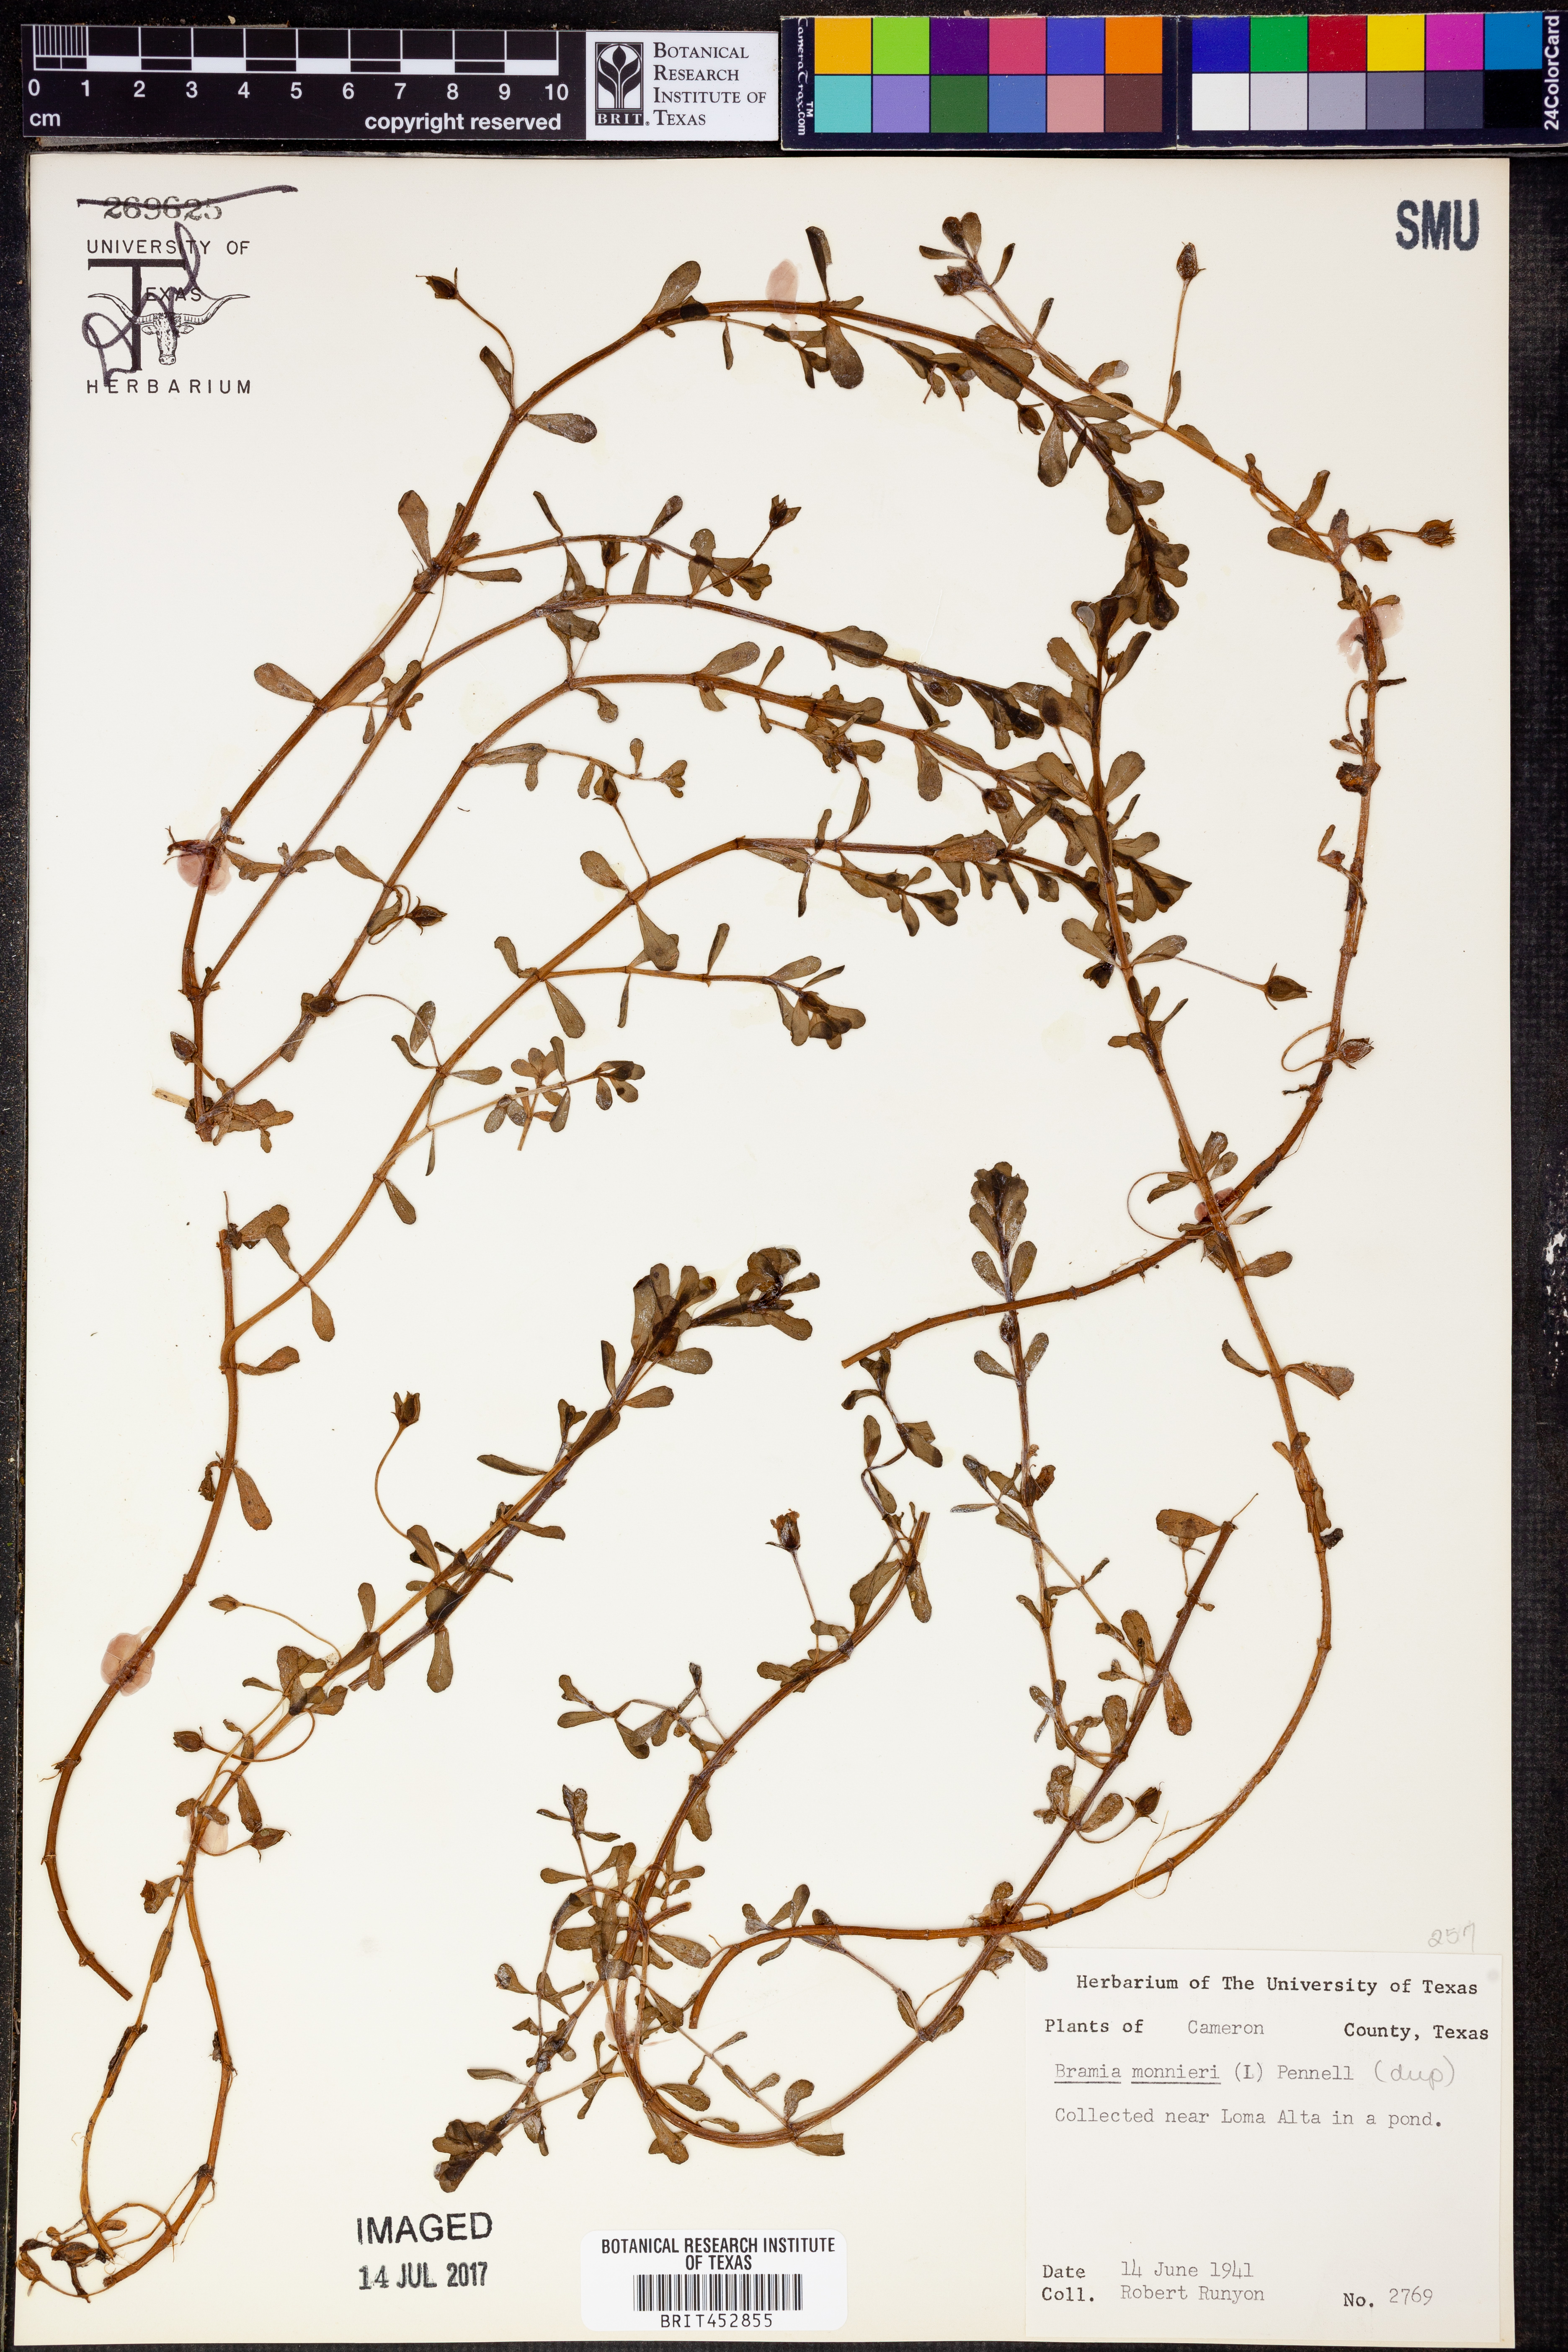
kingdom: Plantae
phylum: Tracheophyta
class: Magnoliopsida
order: Lamiales
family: Plantaginaceae
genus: Bacopa
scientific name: Bacopa monnieri
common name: Indian-pennywort
